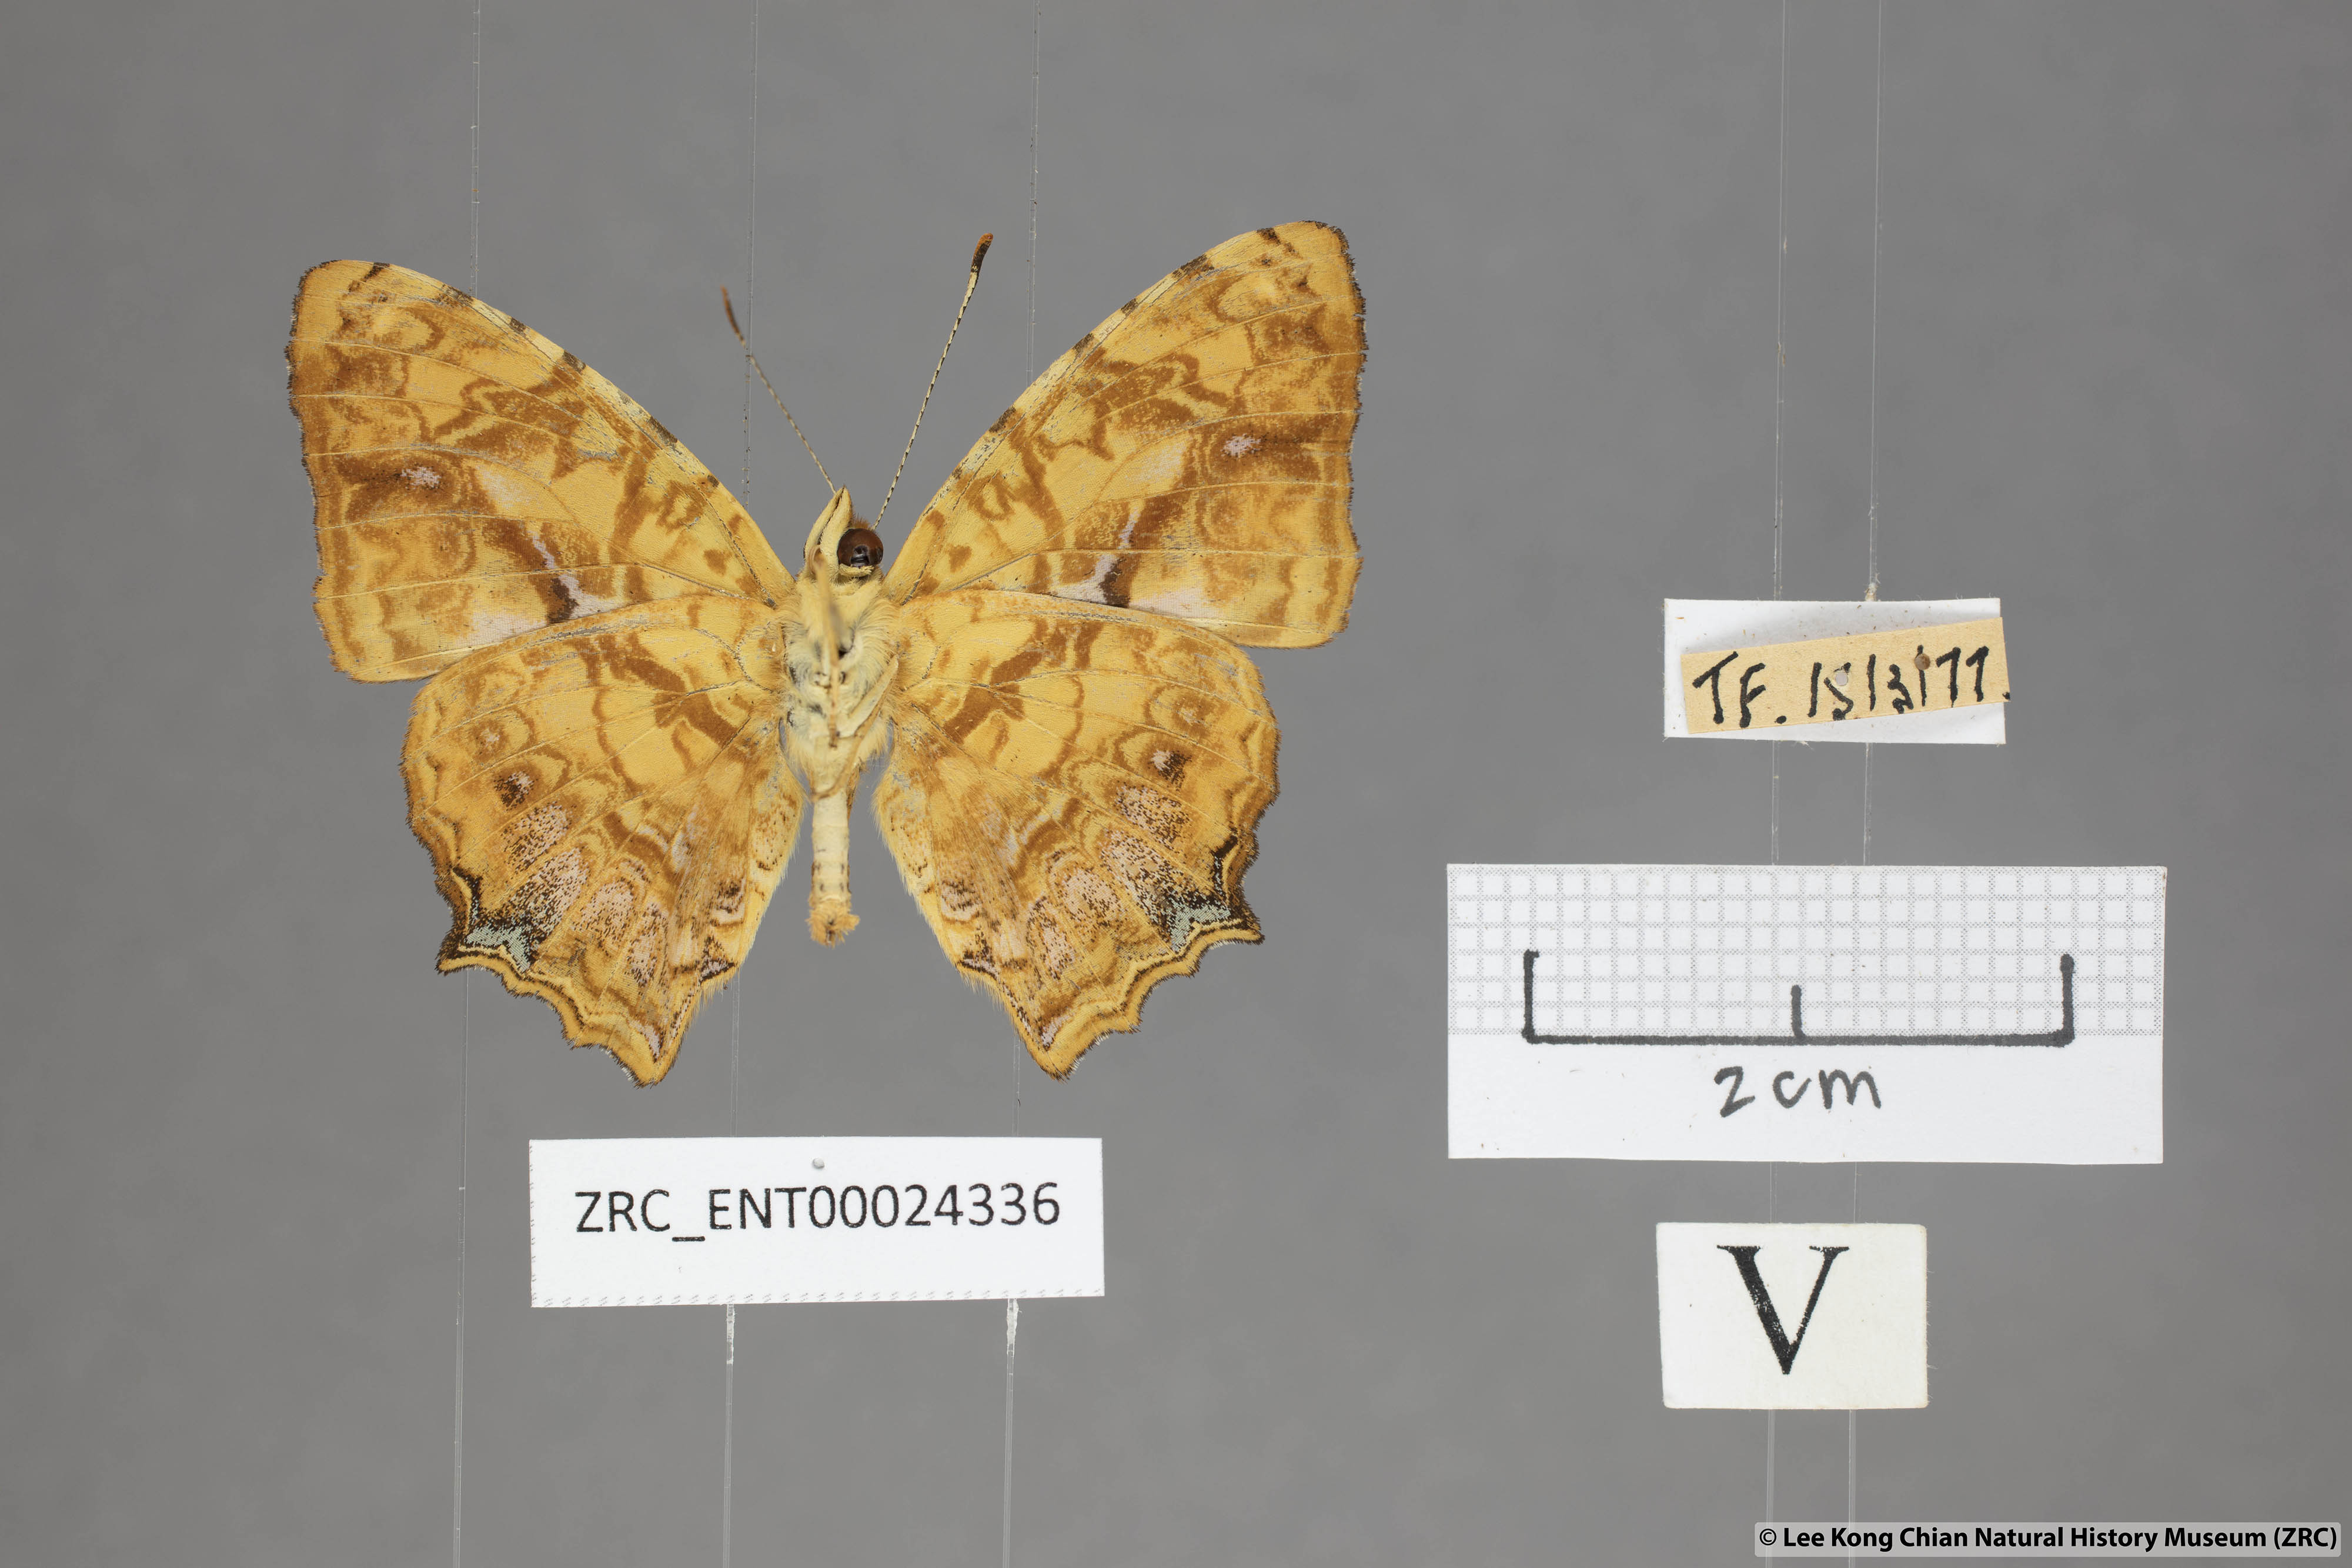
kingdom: Animalia
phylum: Arthropoda
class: Insecta
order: Lepidoptera
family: Nymphalidae
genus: Symbrenthia
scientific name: Symbrenthia hippoclus
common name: Common jester
